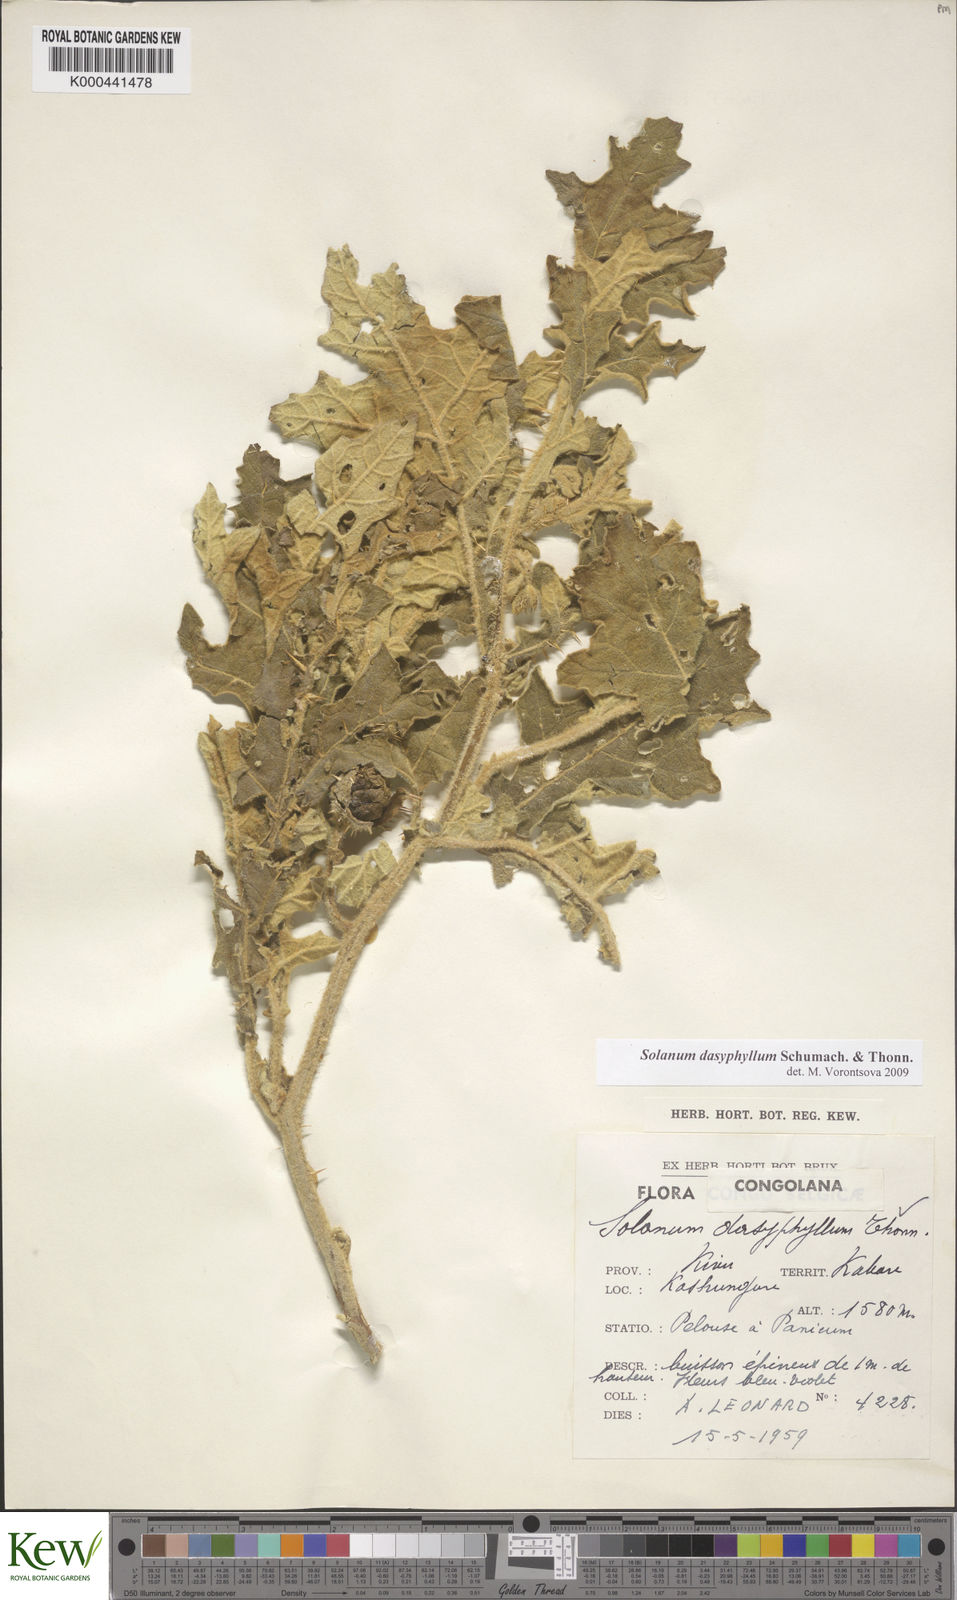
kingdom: Plantae
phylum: Tracheophyta
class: Magnoliopsida
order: Solanales
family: Solanaceae
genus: Solanum
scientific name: Solanum dasyphyllum
